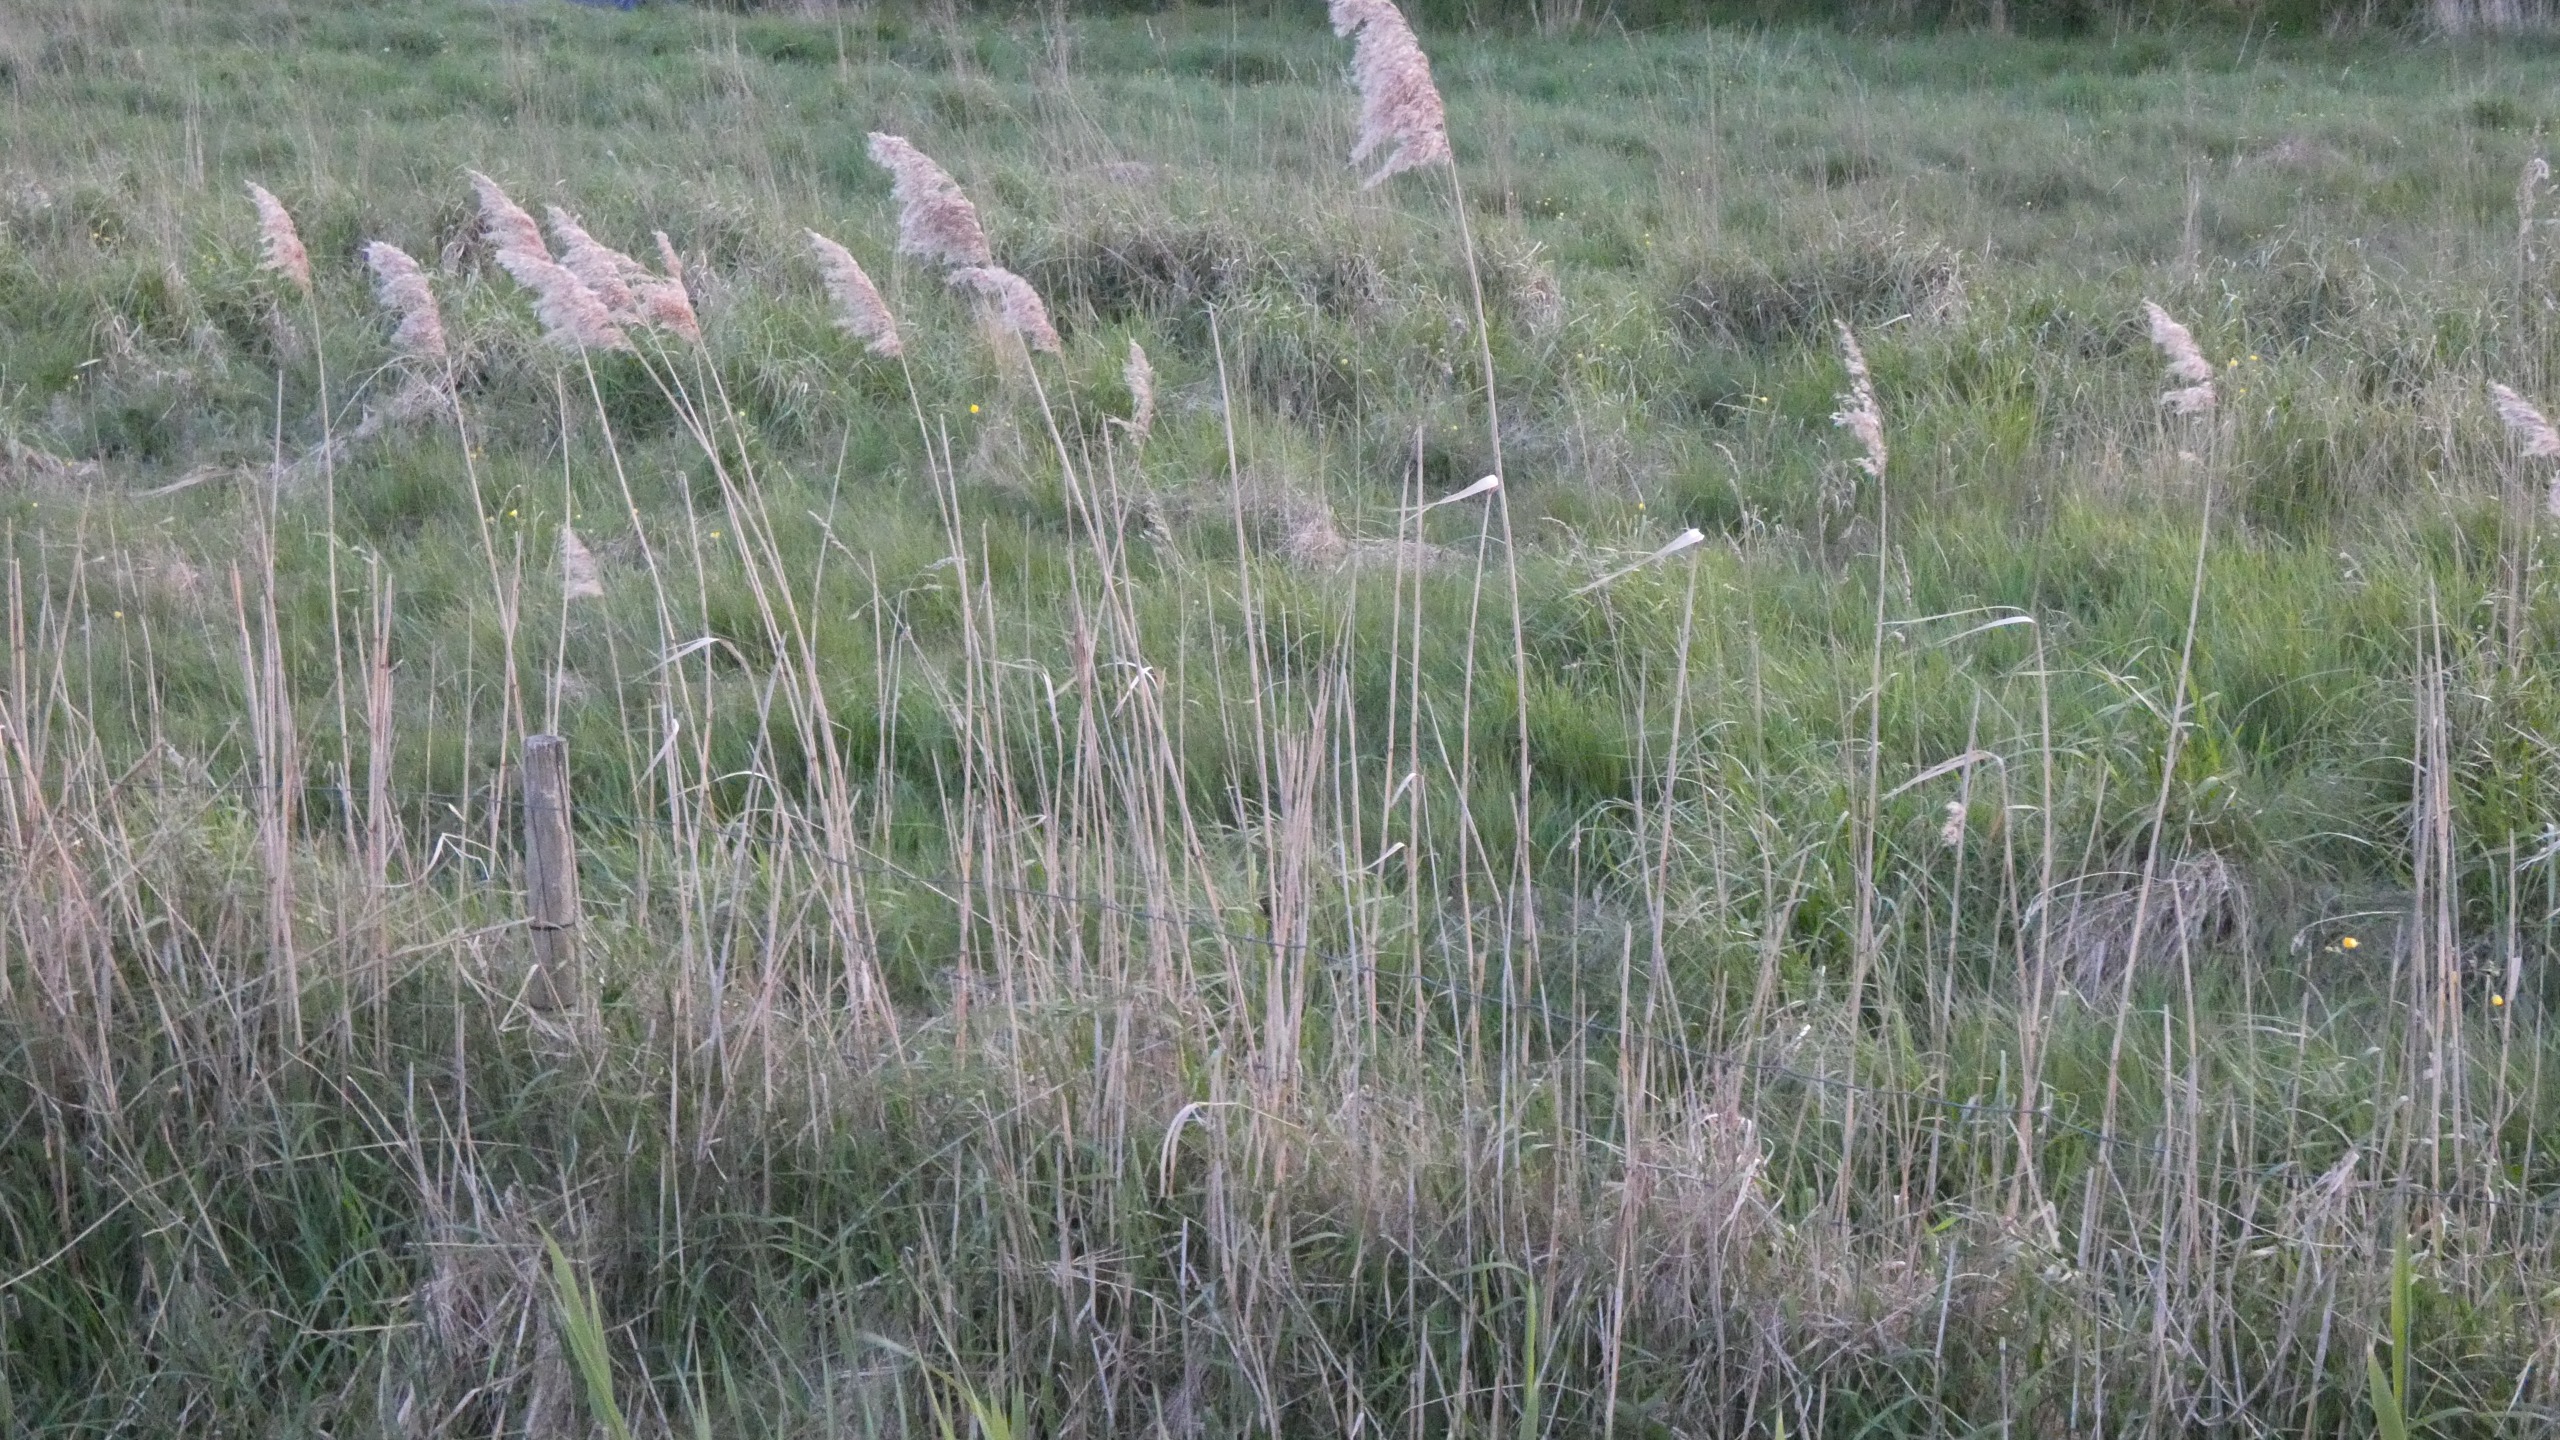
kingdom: Plantae
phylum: Tracheophyta
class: Liliopsida
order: Poales
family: Poaceae
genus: Phragmites
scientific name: Phragmites australis
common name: Tagrør
